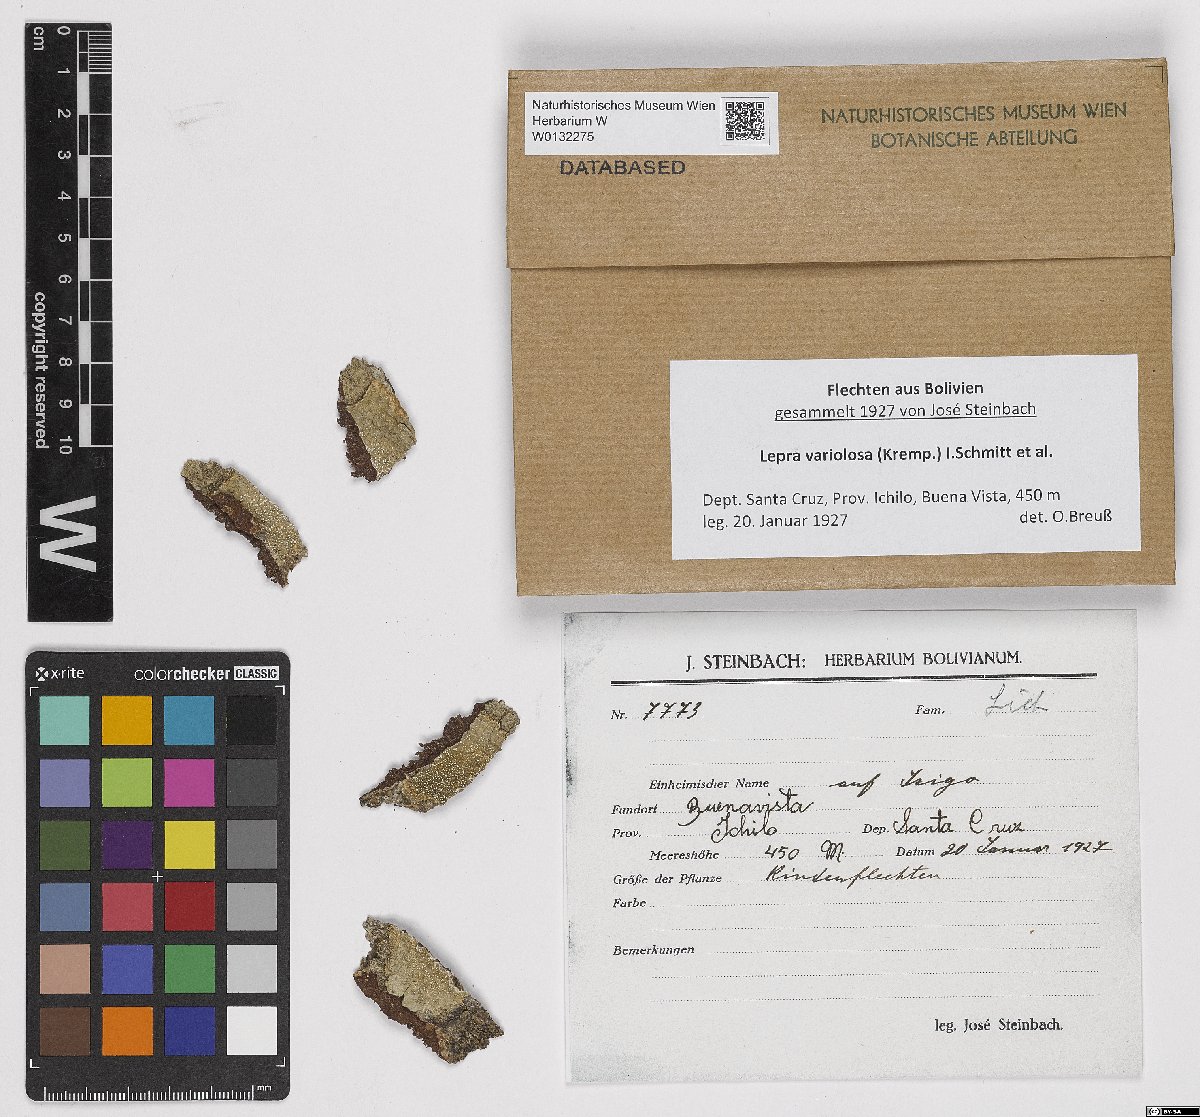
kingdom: Fungi
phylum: Ascomycota
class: Lecanoromycetes
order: Pertusariales
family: Pertusariaceae
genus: Lepra
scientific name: Lepra variolosa
